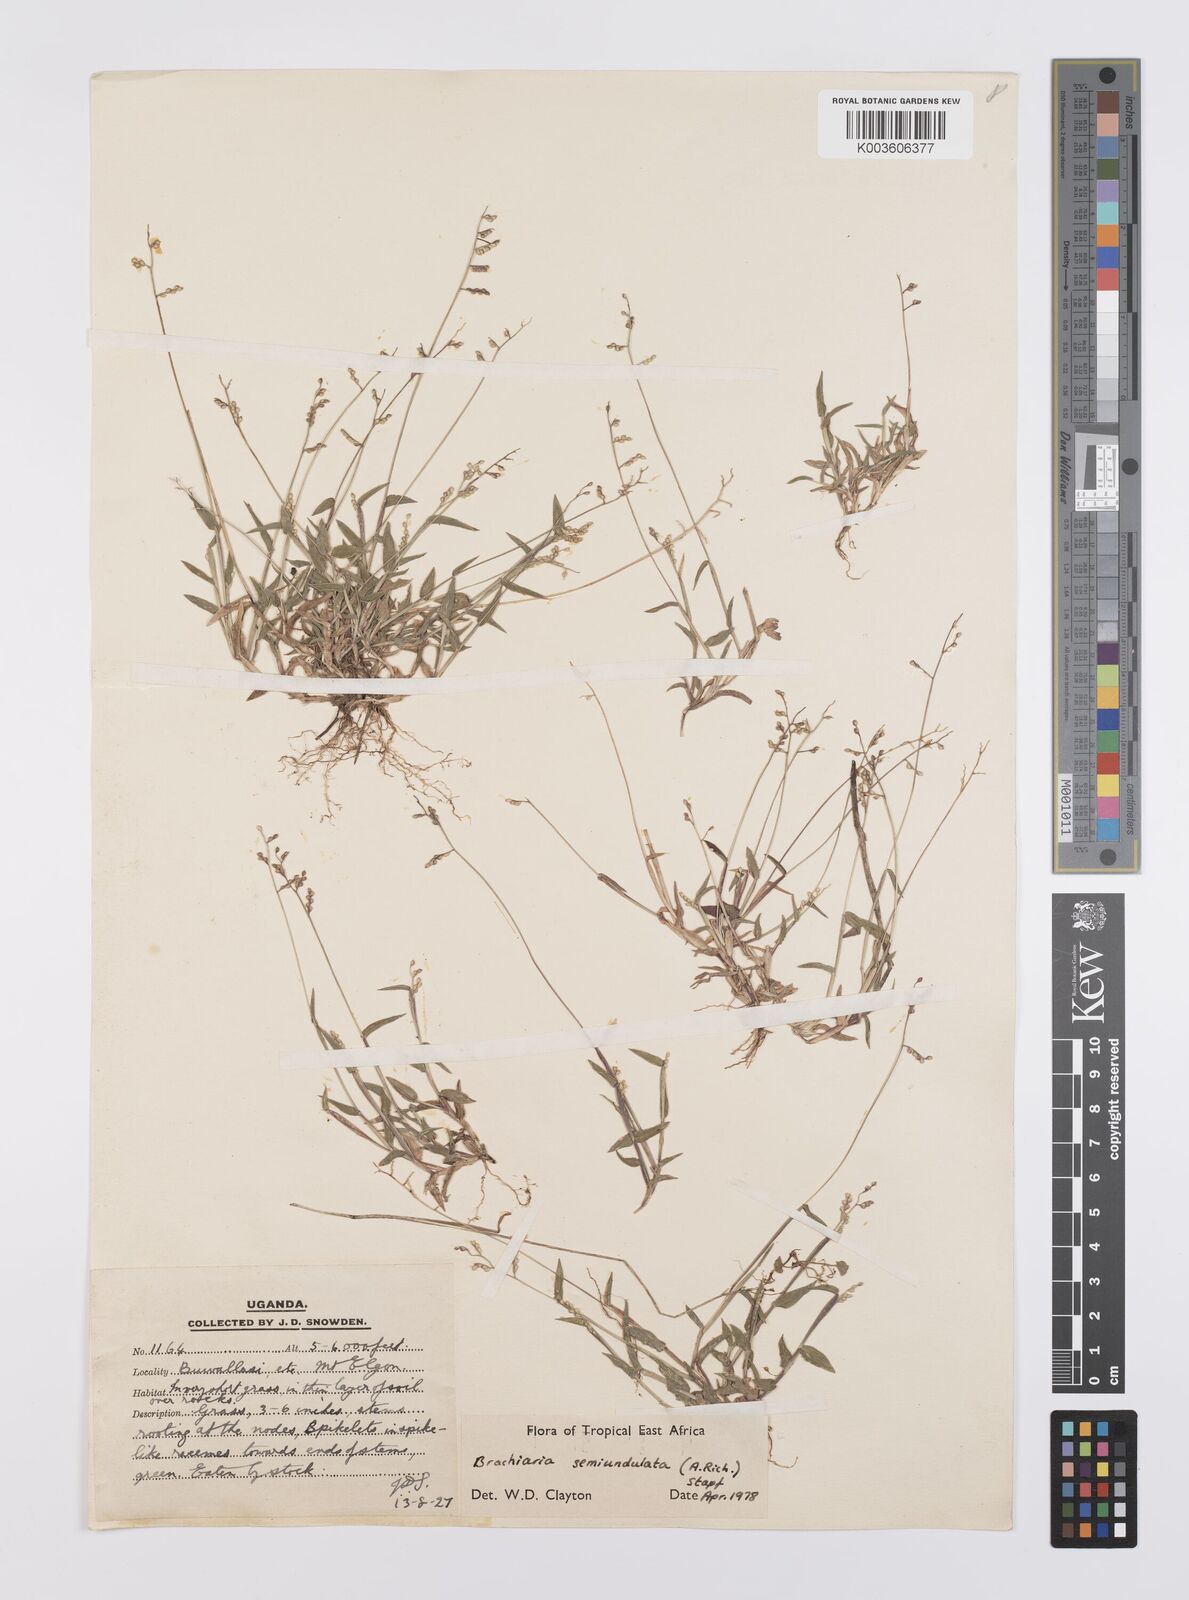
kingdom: Plantae
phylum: Tracheophyta
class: Liliopsida
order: Poales
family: Poaceae
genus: Urochloa
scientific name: Urochloa semiundulata
